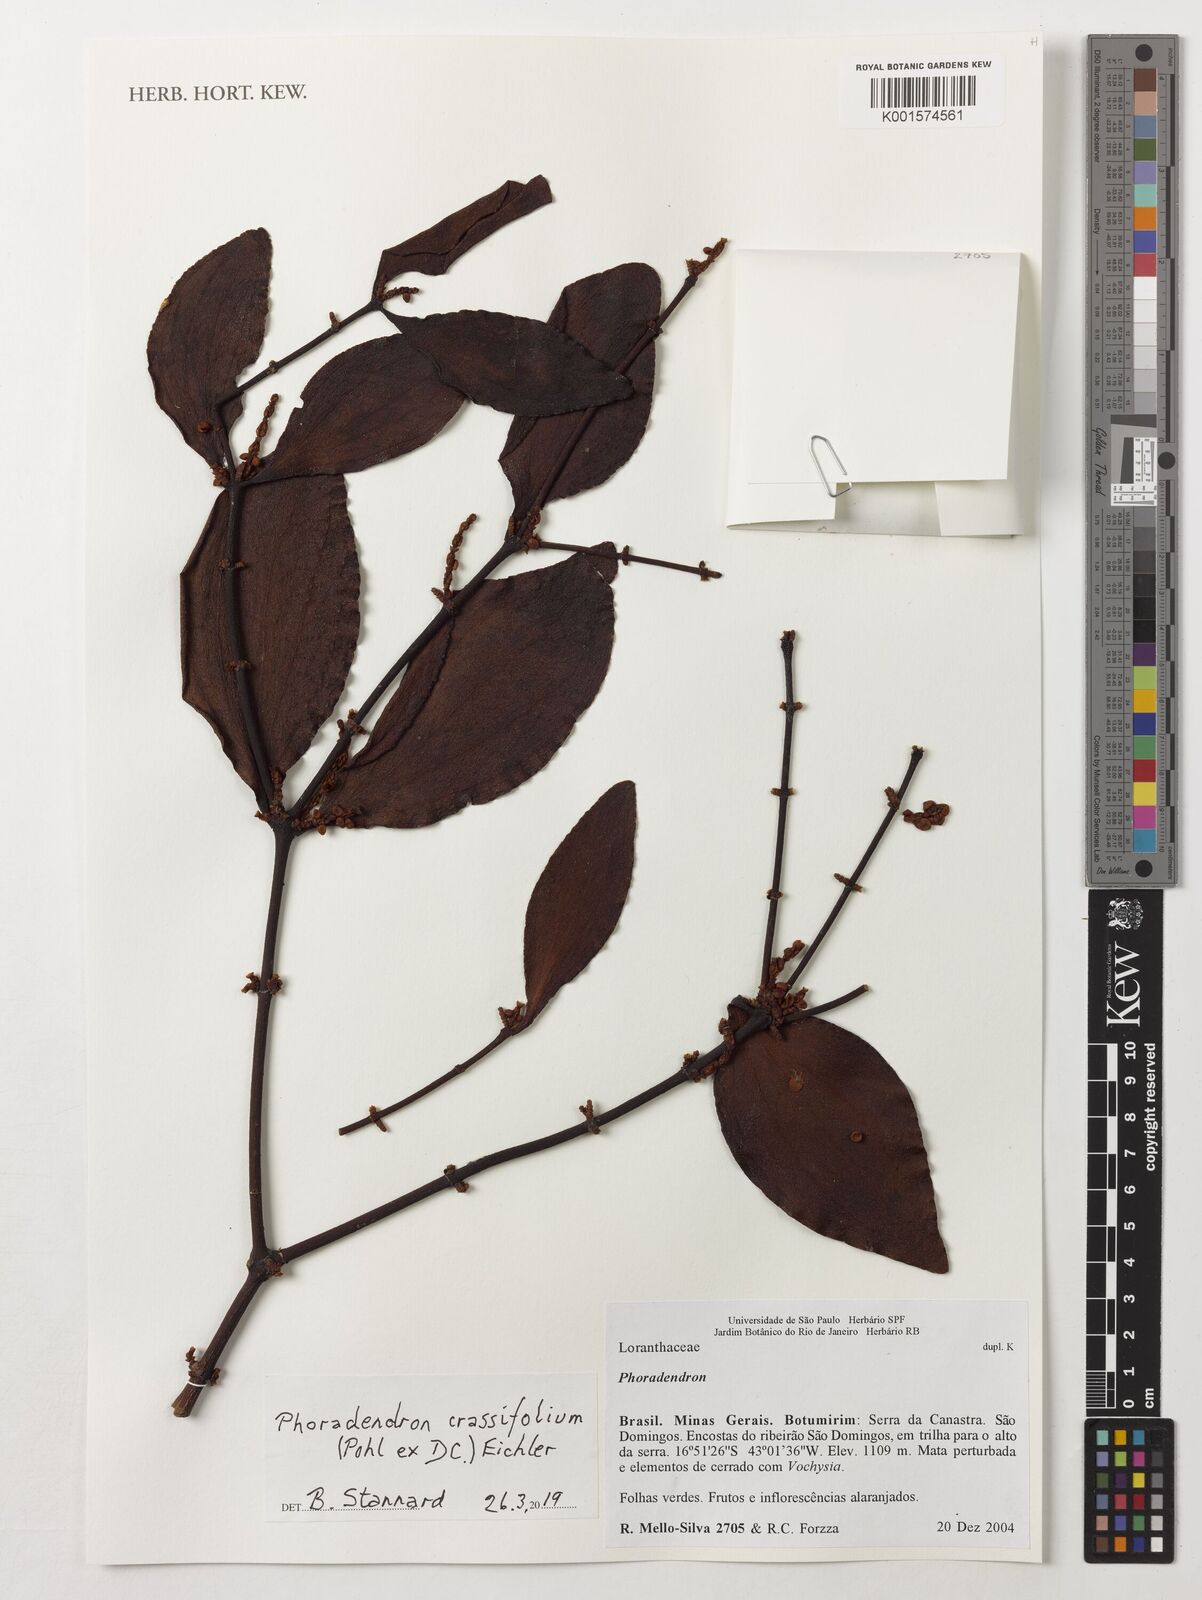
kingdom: Plantae
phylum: Tracheophyta
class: Magnoliopsida
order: Santalales
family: Viscaceae
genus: Phoradendron
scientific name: Phoradendron crassifolium
